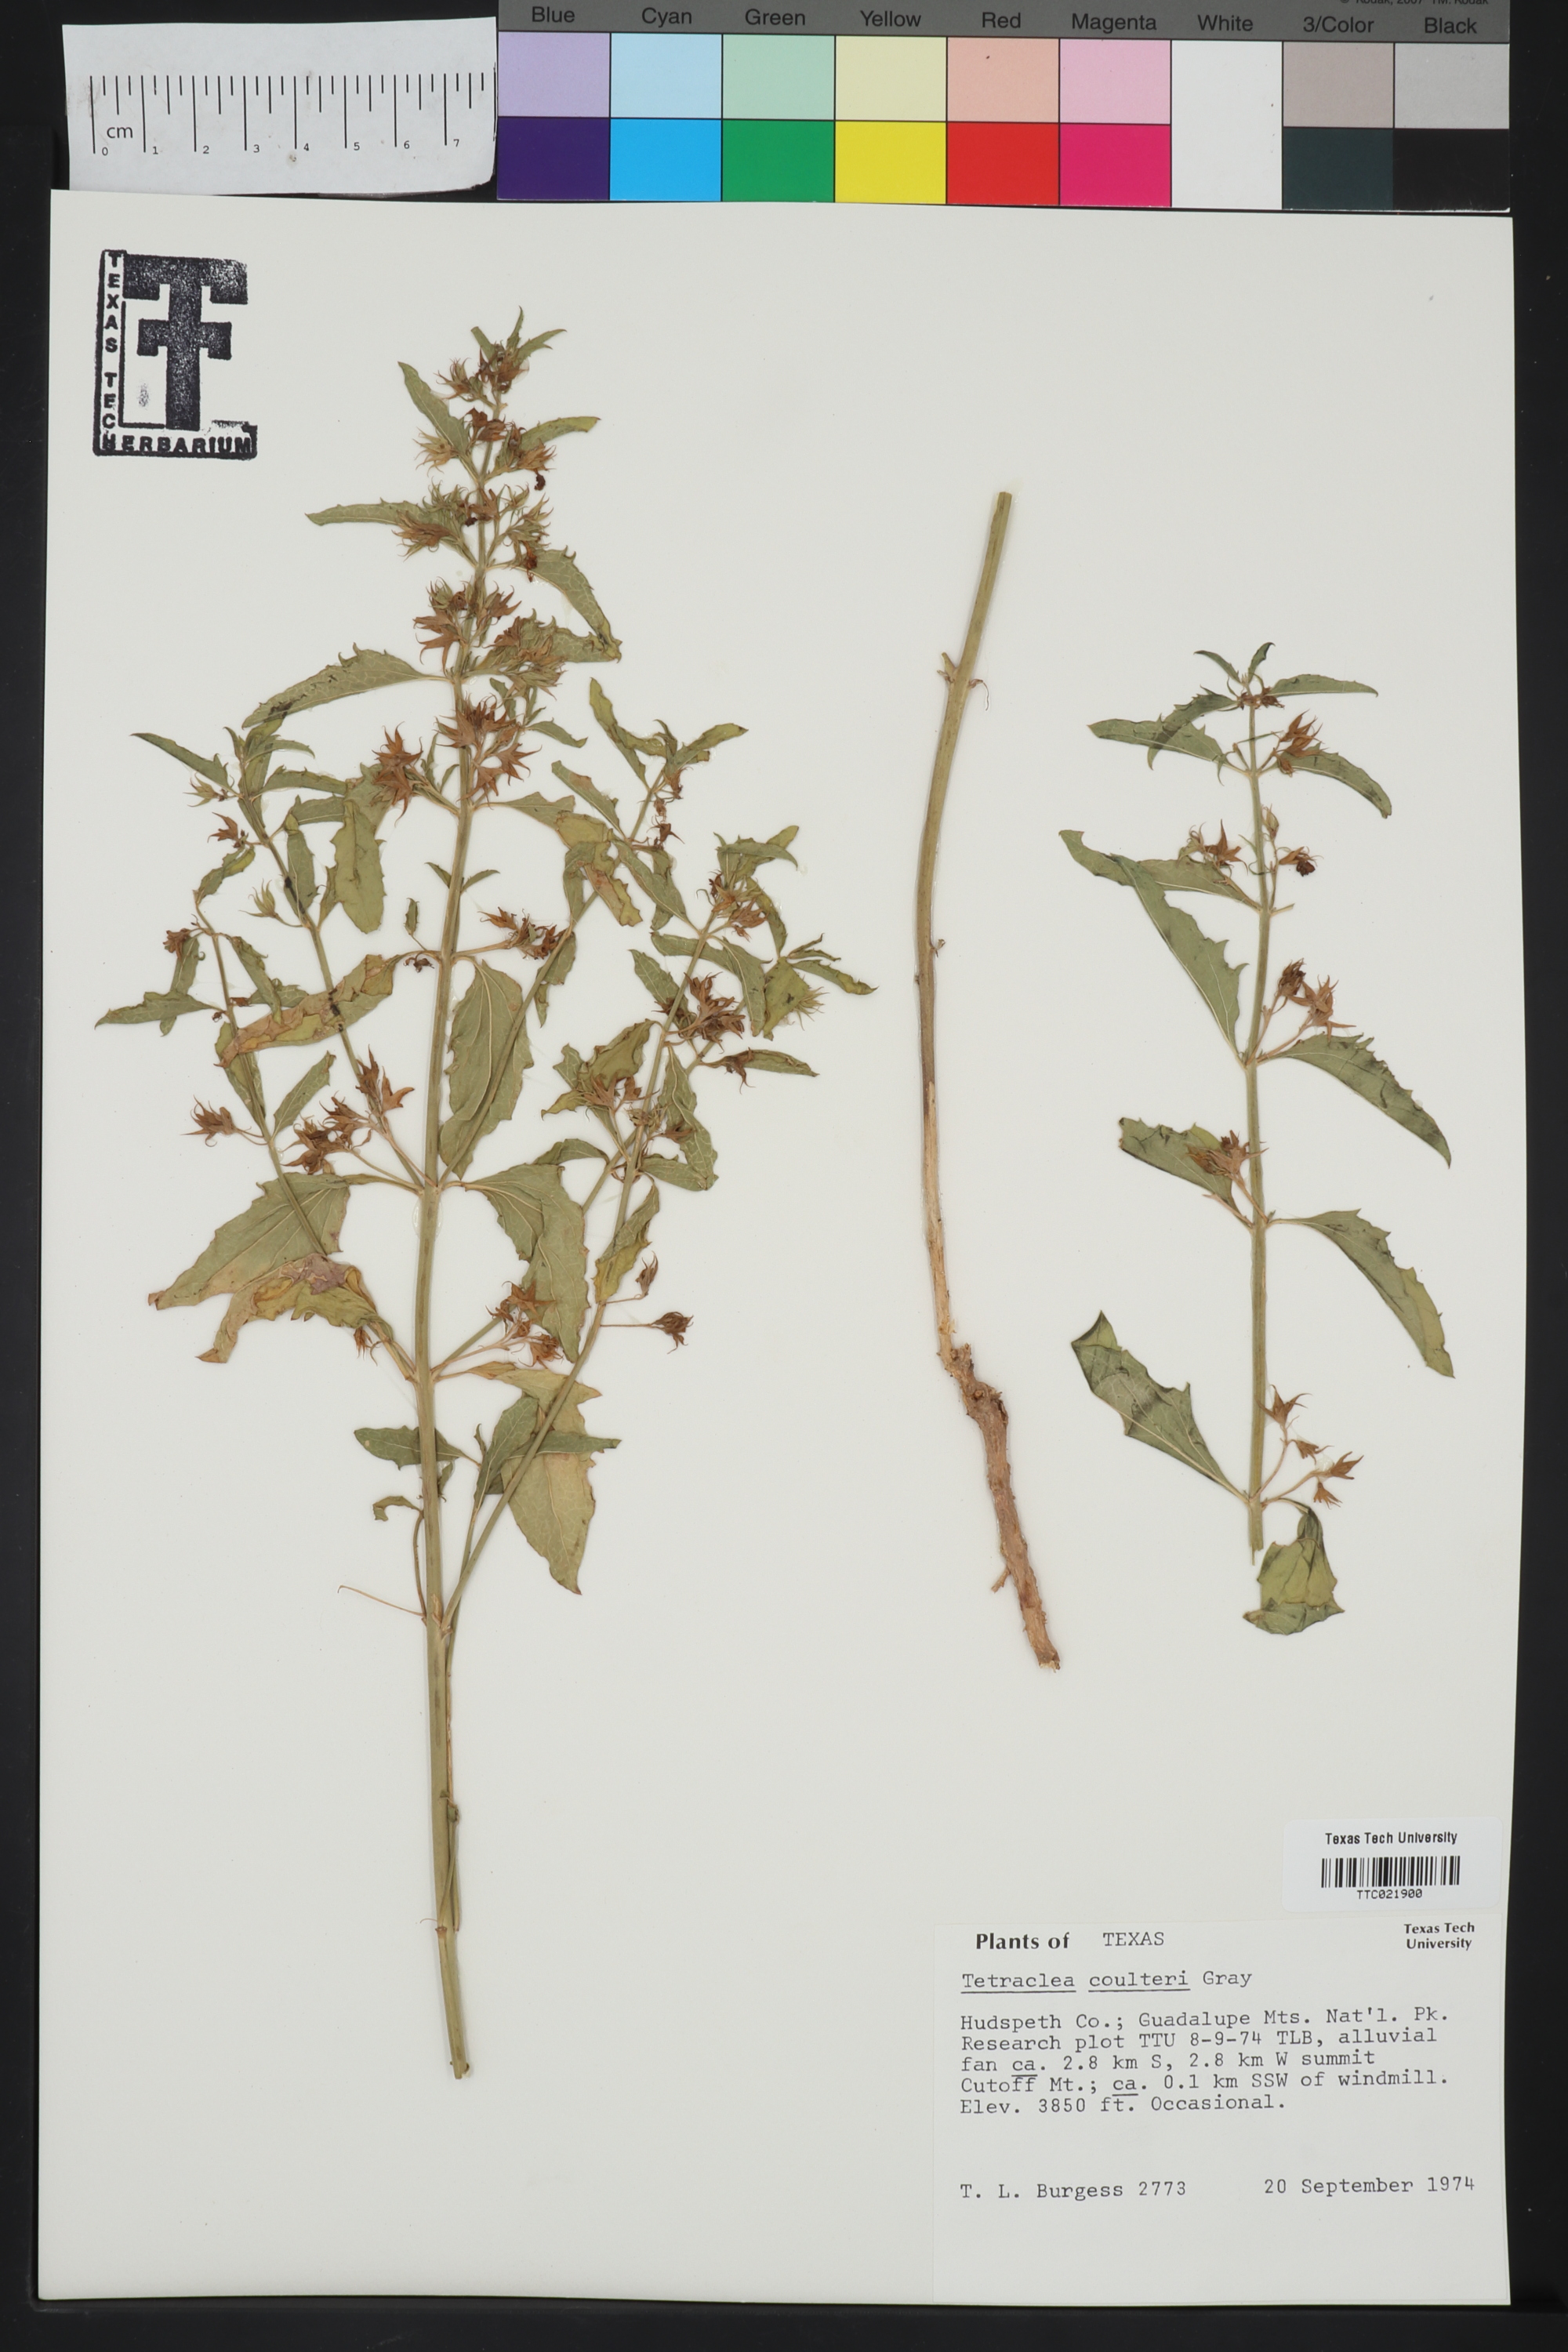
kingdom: Plantae
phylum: Tracheophyta
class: Magnoliopsida
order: Lamiales
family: Lamiaceae
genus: Tetraclea
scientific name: Tetraclea coulteri
